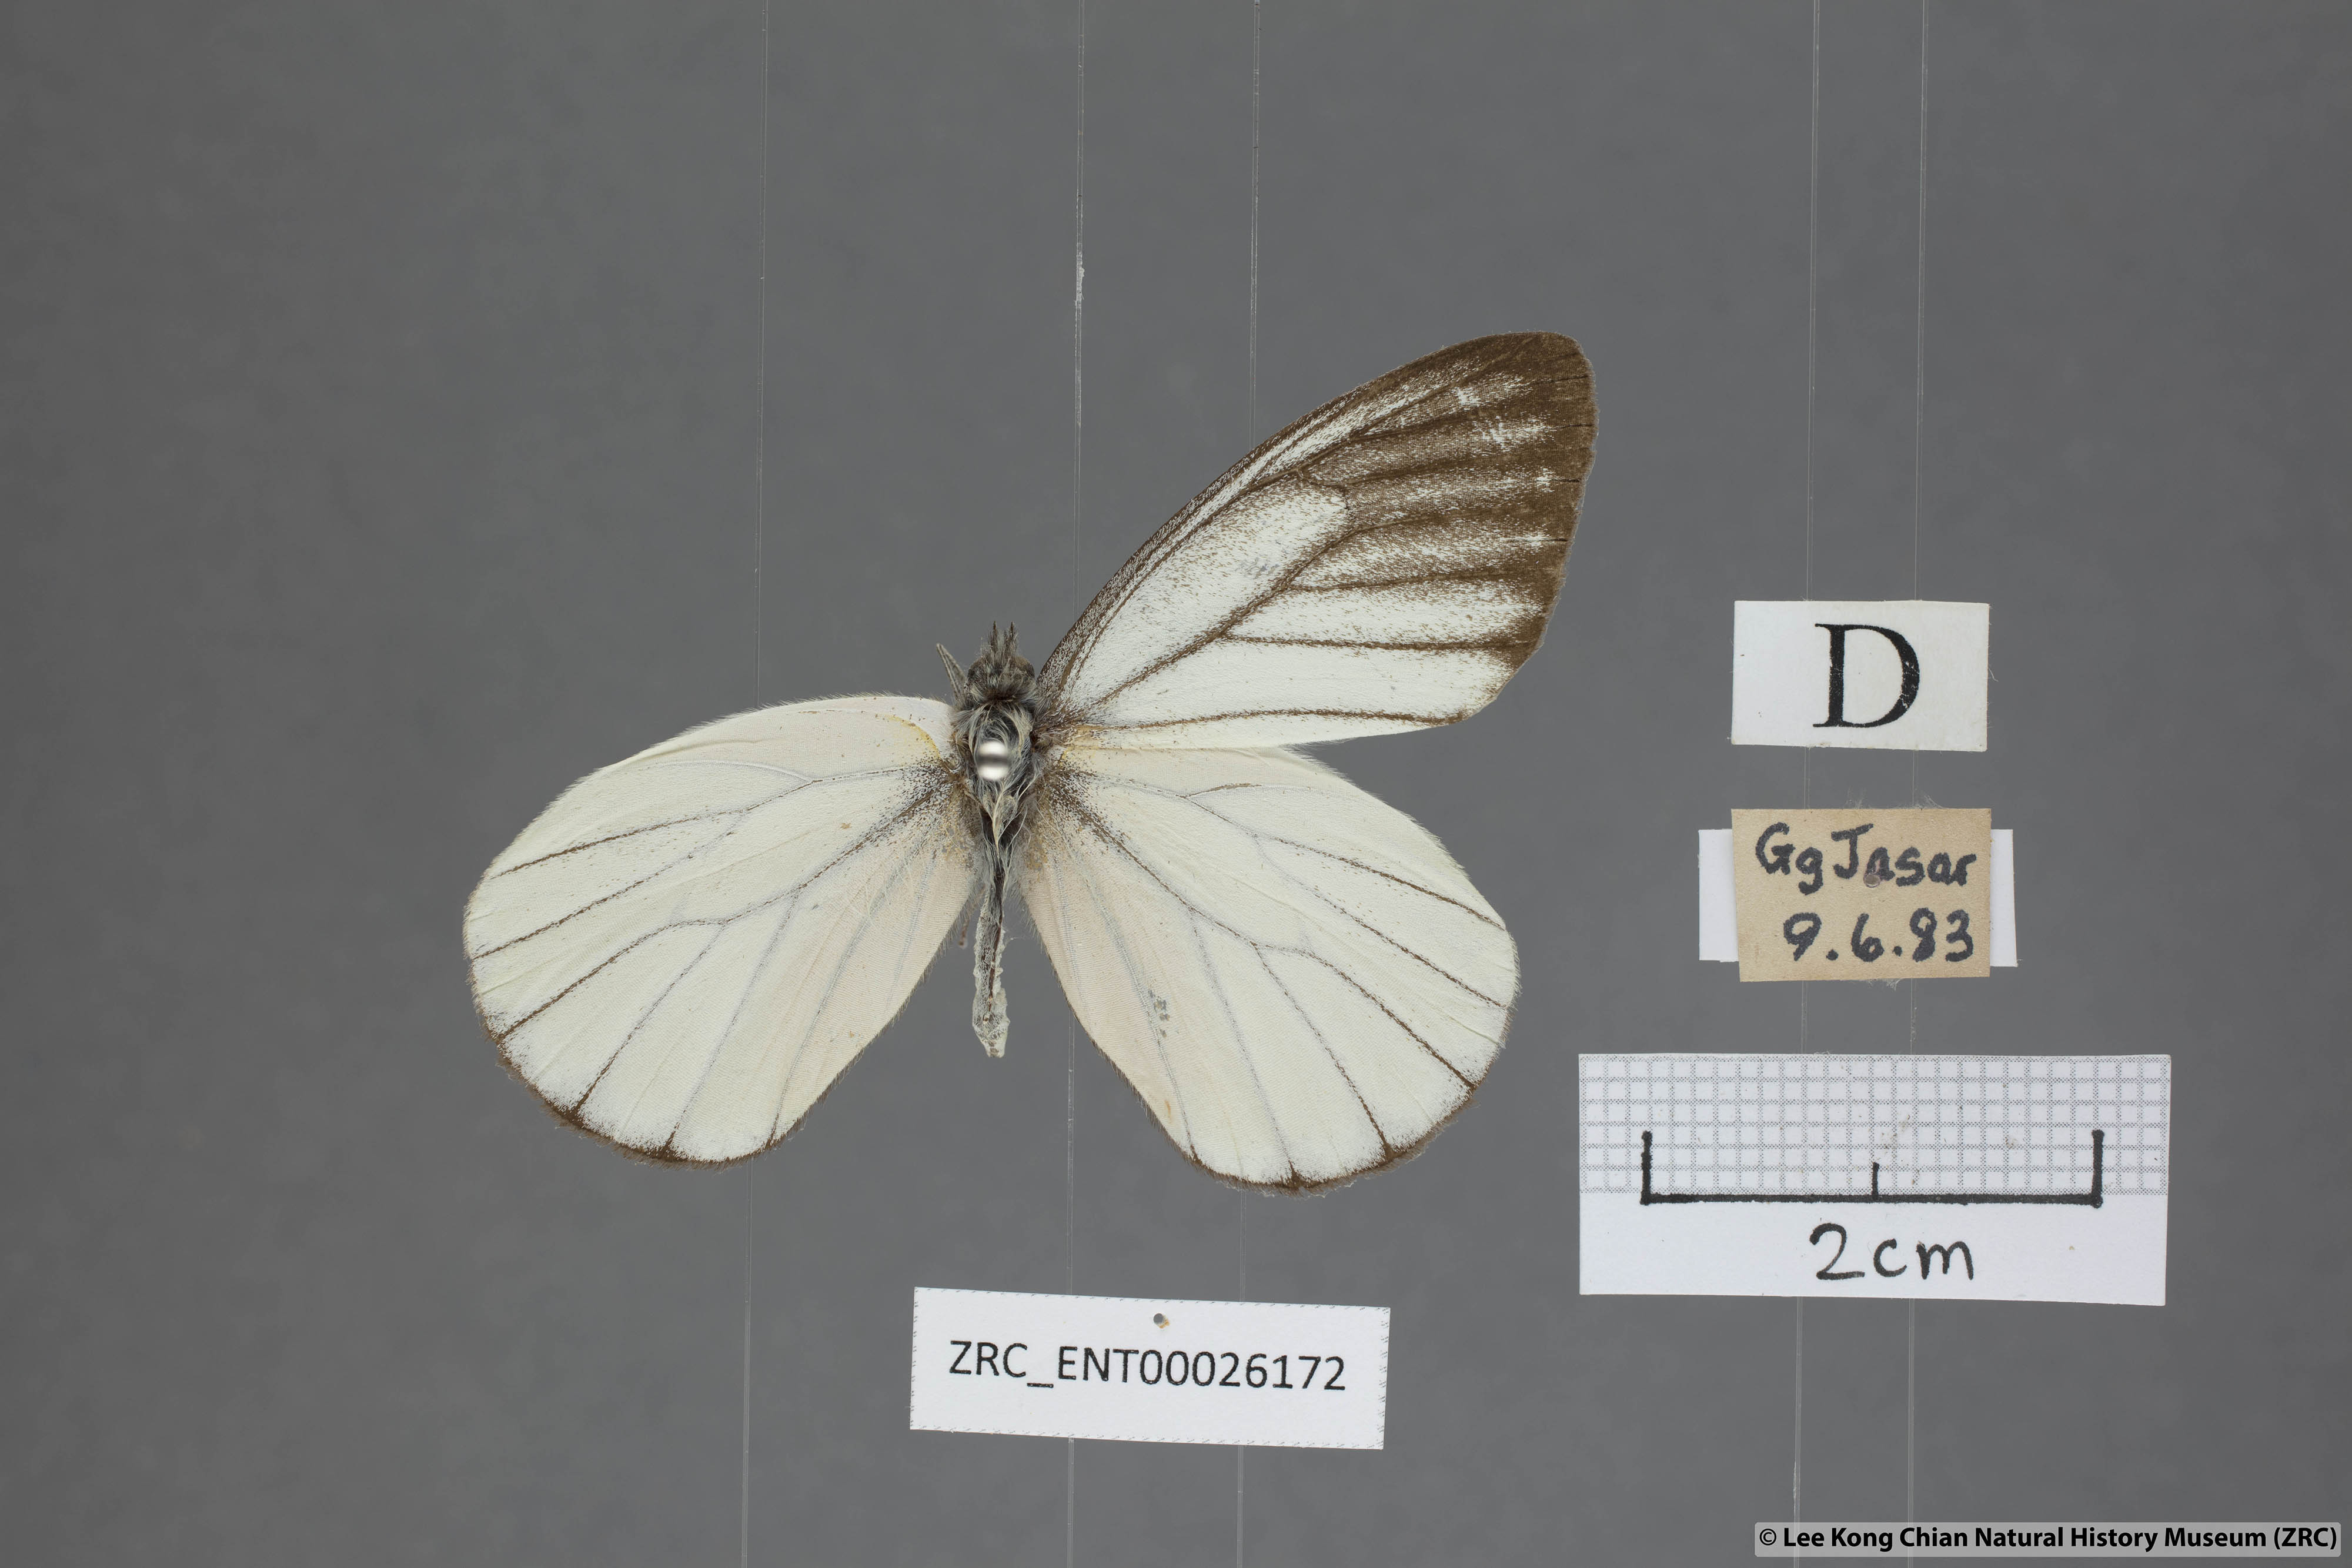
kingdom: Animalia
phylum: Arthropoda
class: Insecta
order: Lepidoptera
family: Pieridae
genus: Delias
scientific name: Delias baracasa
